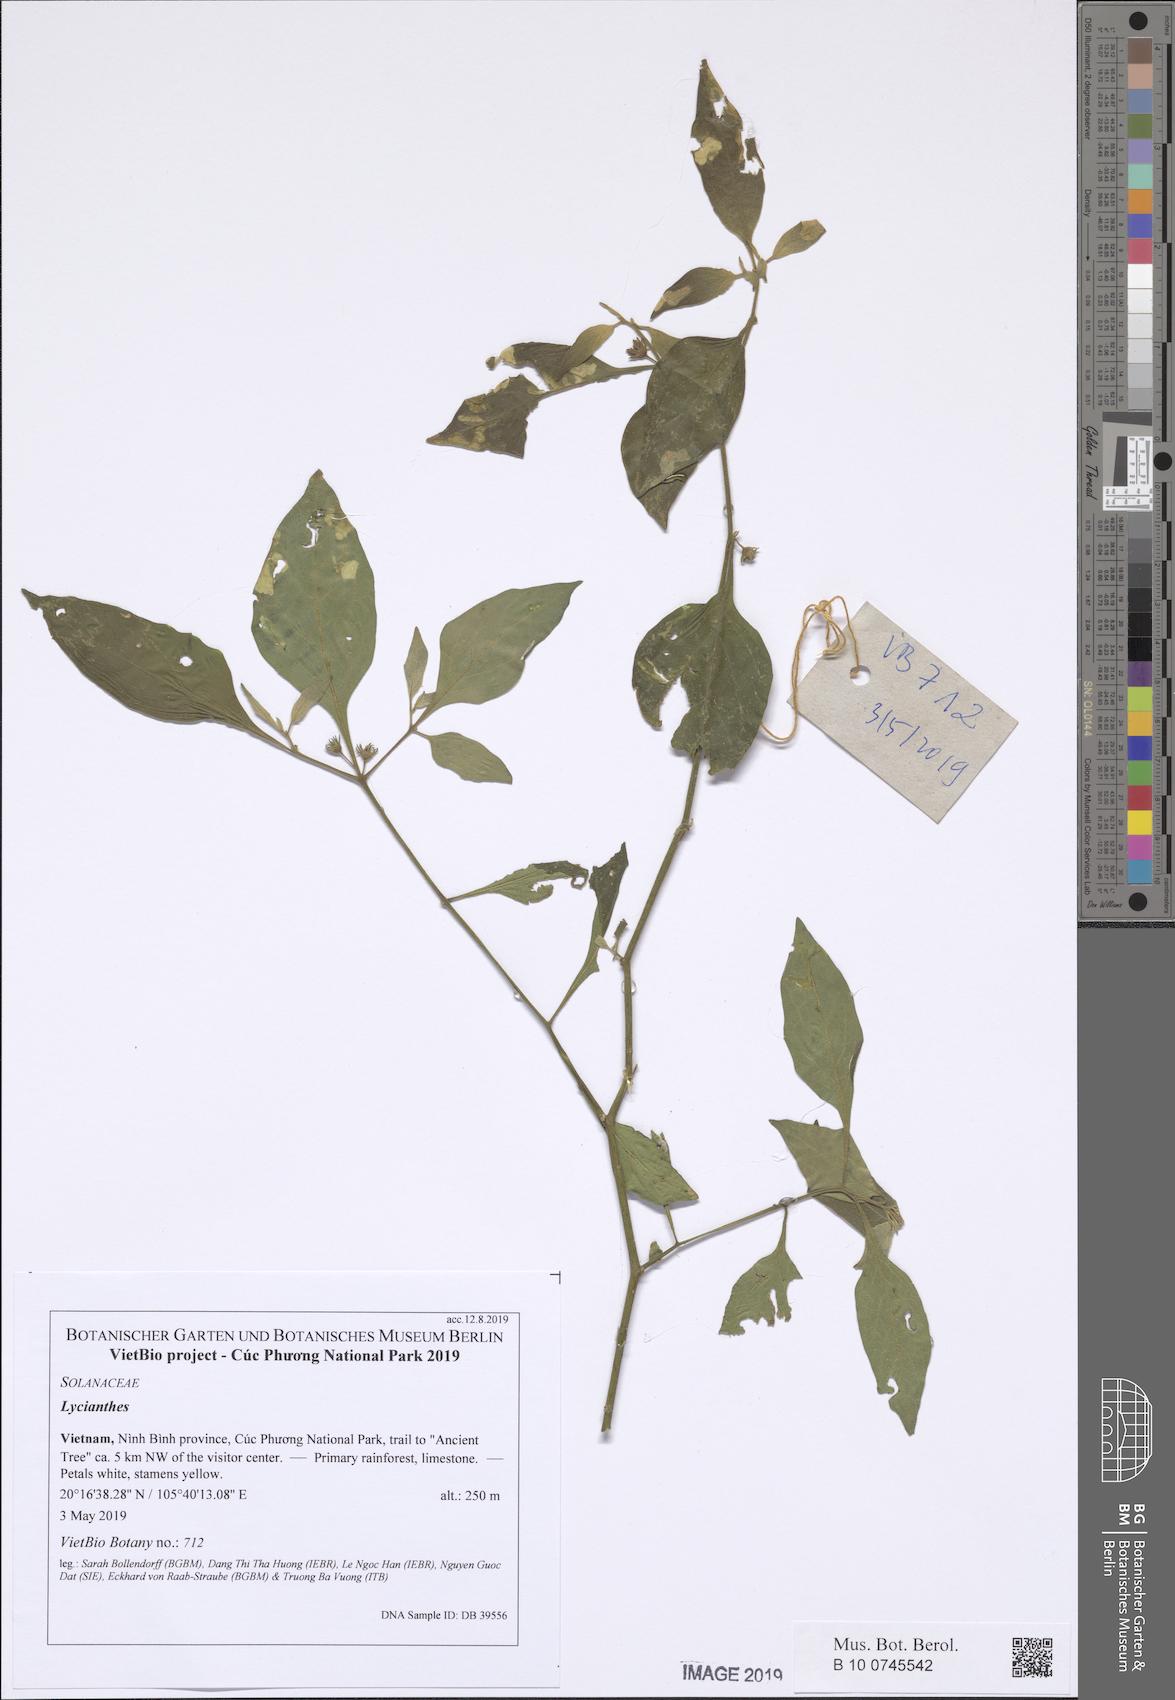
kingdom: Plantae
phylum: Tracheophyta
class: Magnoliopsida
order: Solanales
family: Solanaceae
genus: Lycianthes
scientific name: Lycianthes
